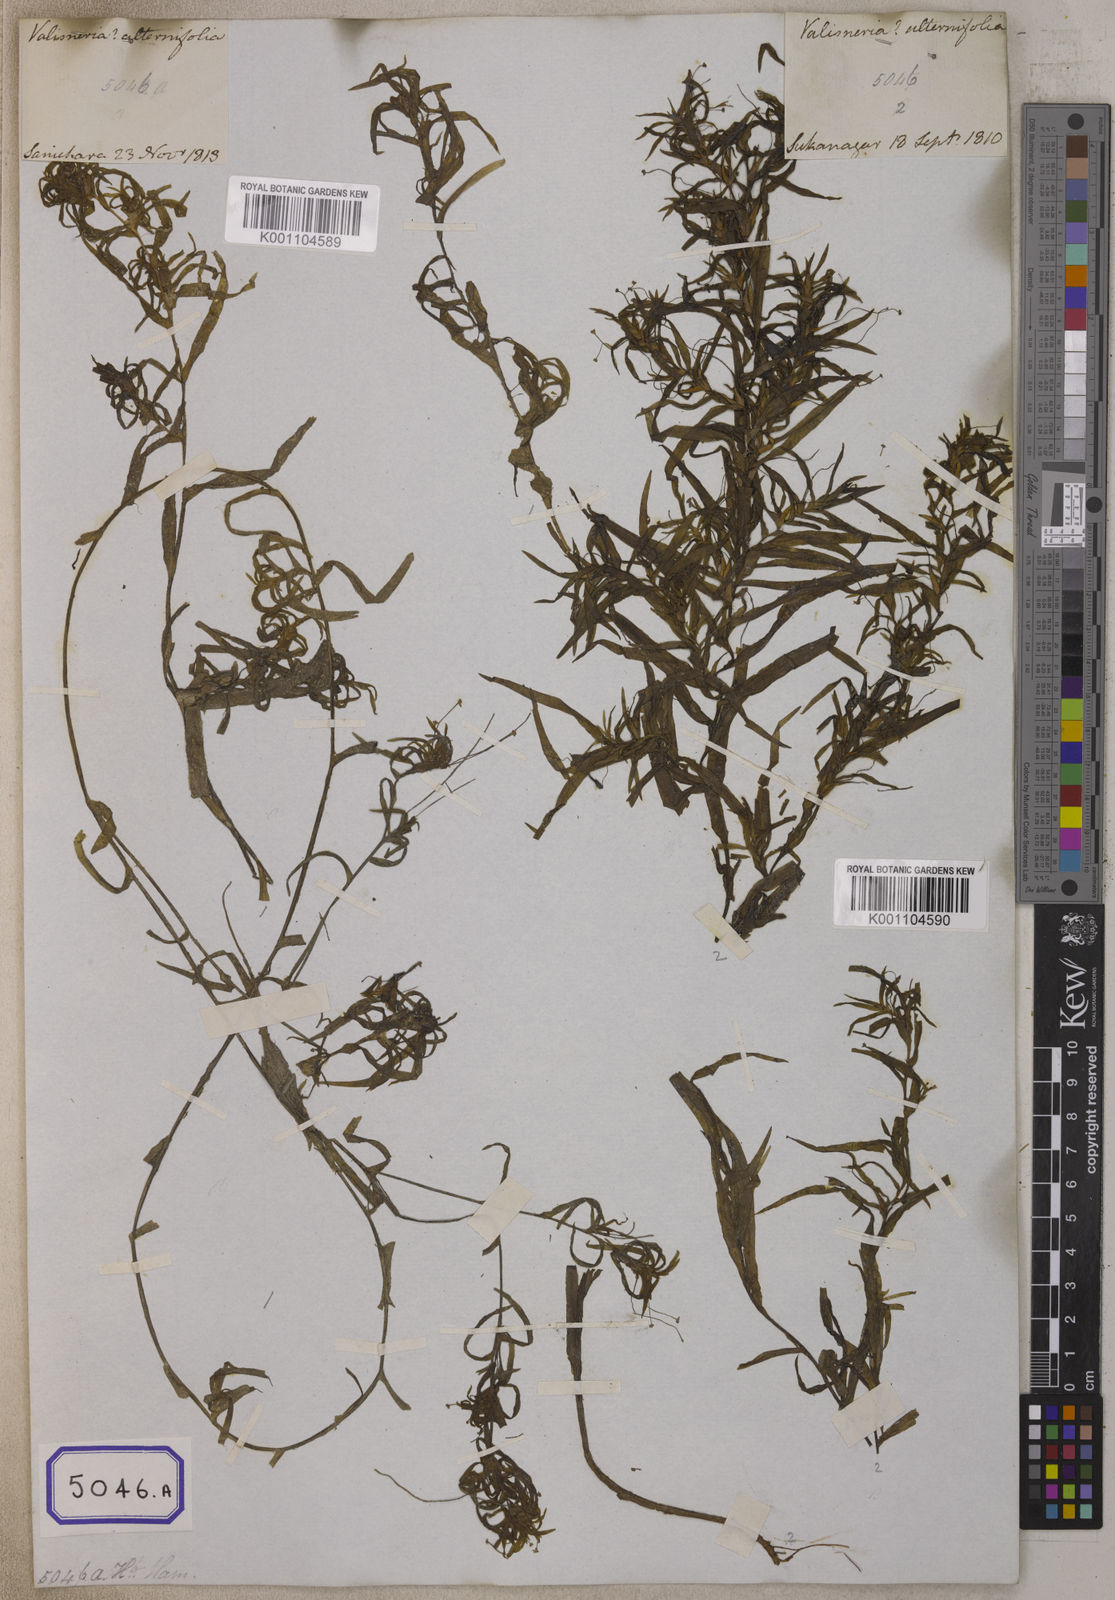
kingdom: Plantae
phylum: Tracheophyta
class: Liliopsida
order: Alismatales
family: Hydrocharitaceae
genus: Vallisneria
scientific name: Vallisneria
